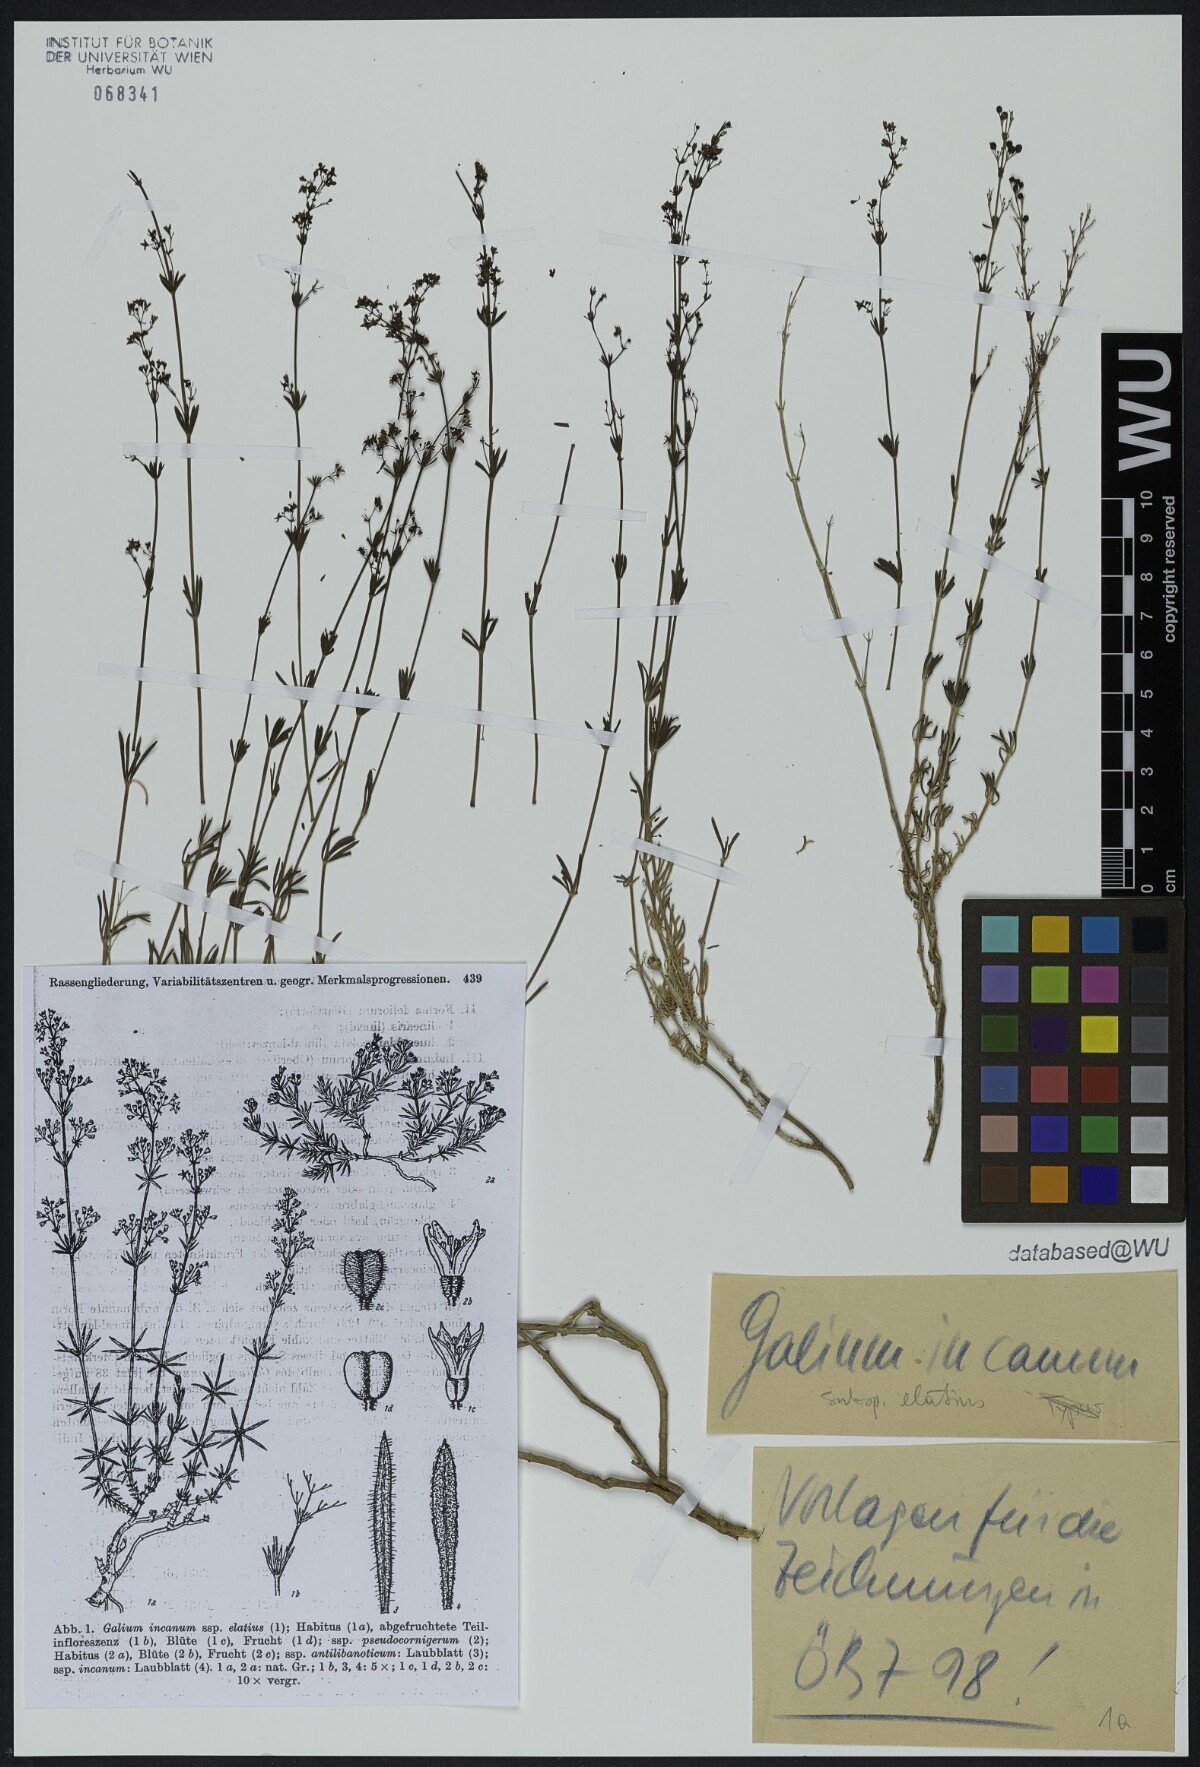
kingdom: Plantae
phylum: Tracheophyta
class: Magnoliopsida
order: Gentianales
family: Rubiaceae
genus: Galium
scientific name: Galium incanum
